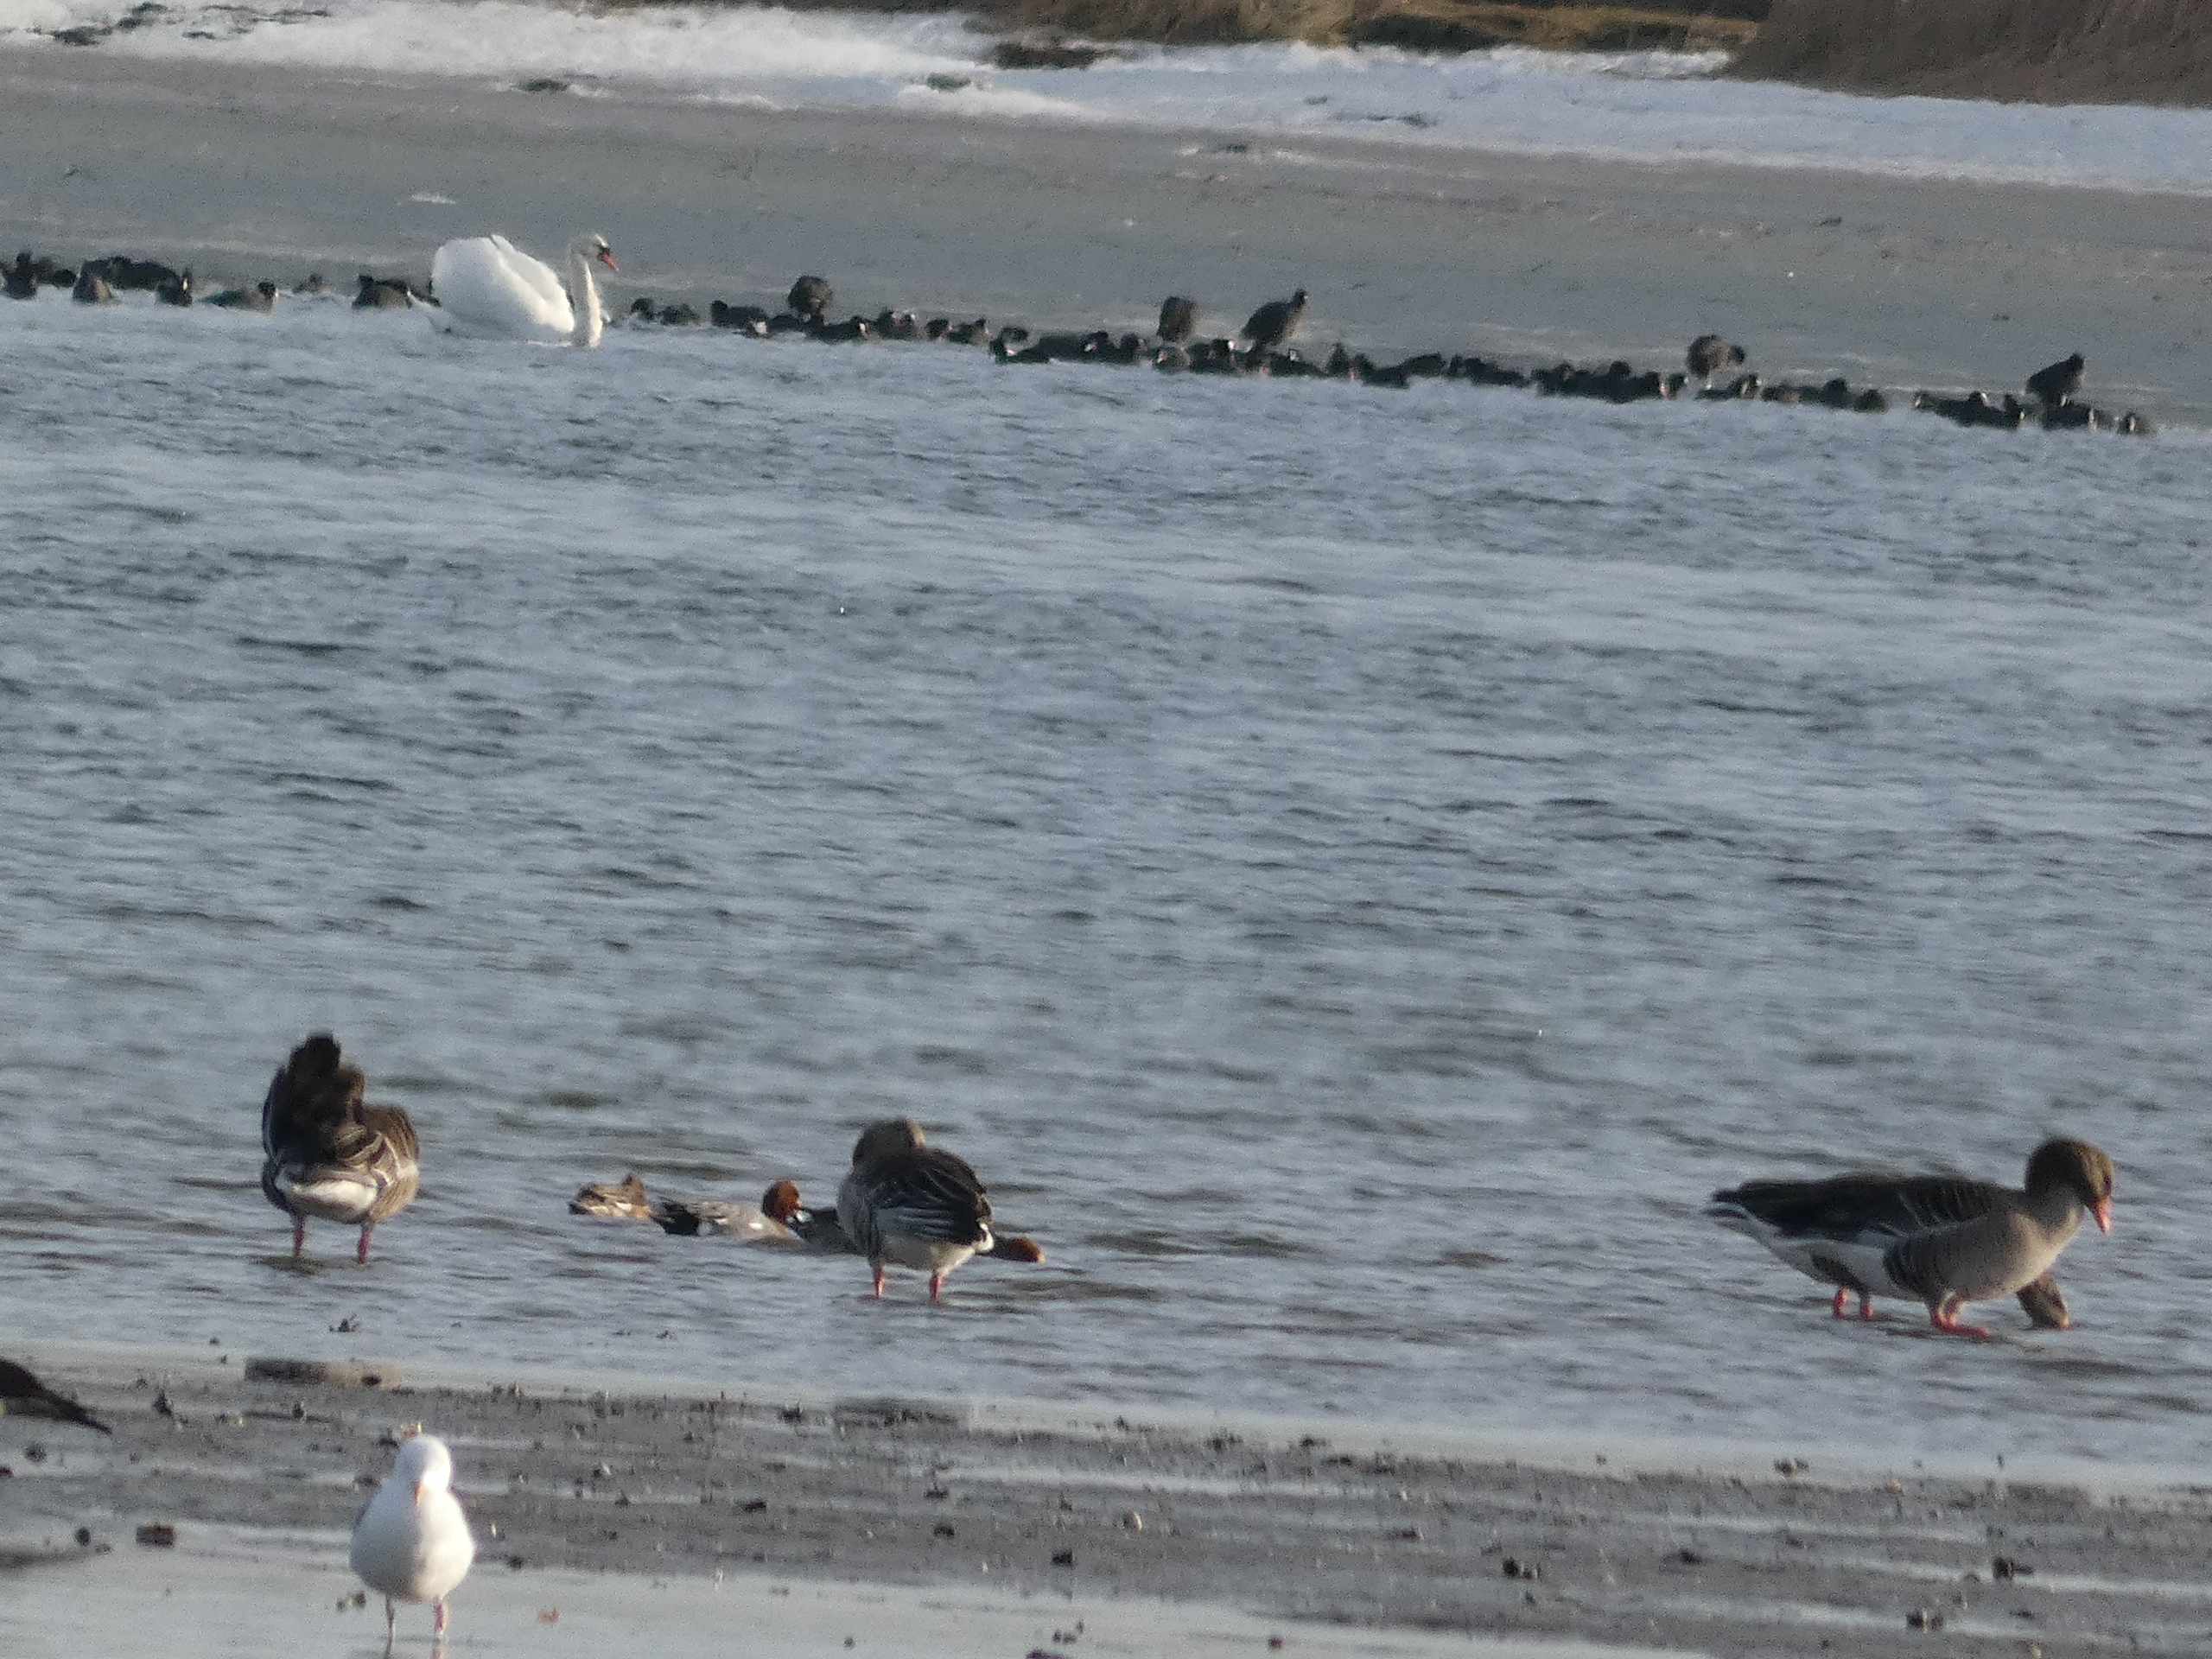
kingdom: Animalia
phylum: Chordata
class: Aves
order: Anseriformes
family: Anatidae
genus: Cygnus
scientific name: Cygnus olor
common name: Knopsvane
